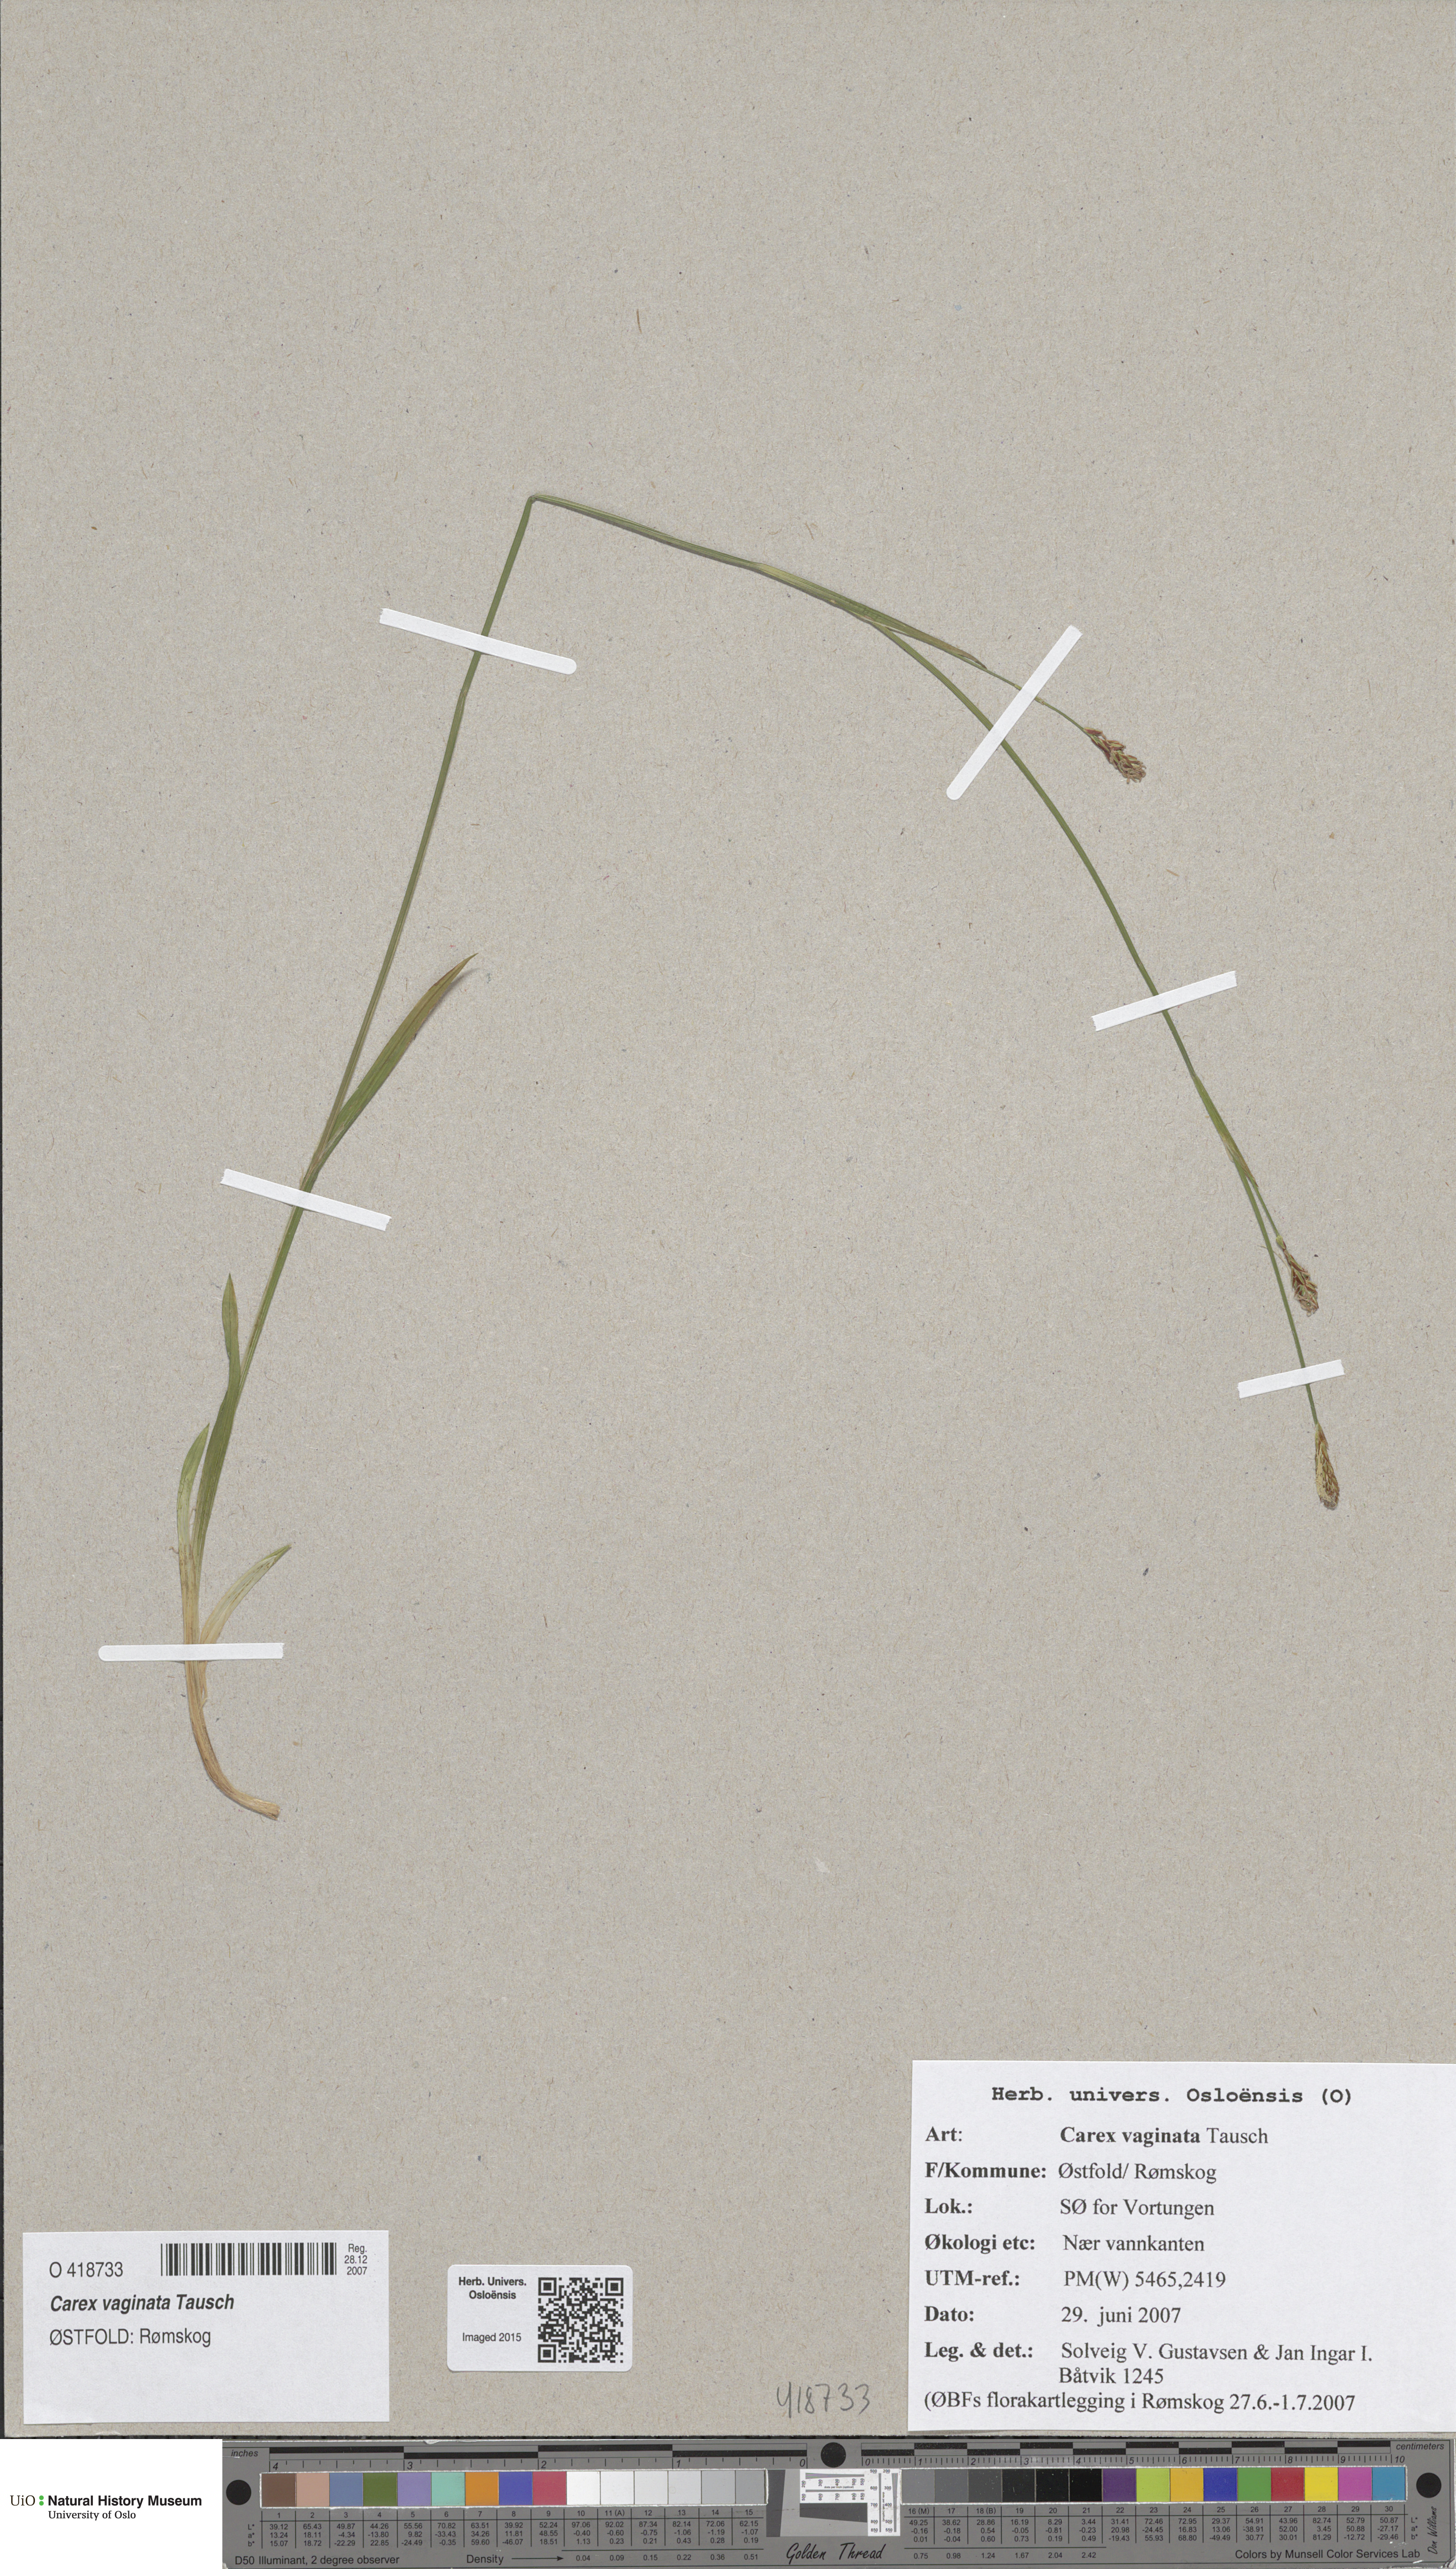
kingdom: Plantae
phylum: Tracheophyta
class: Liliopsida
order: Poales
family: Cyperaceae
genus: Carex
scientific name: Carex vaginata
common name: Sheathed sedge
